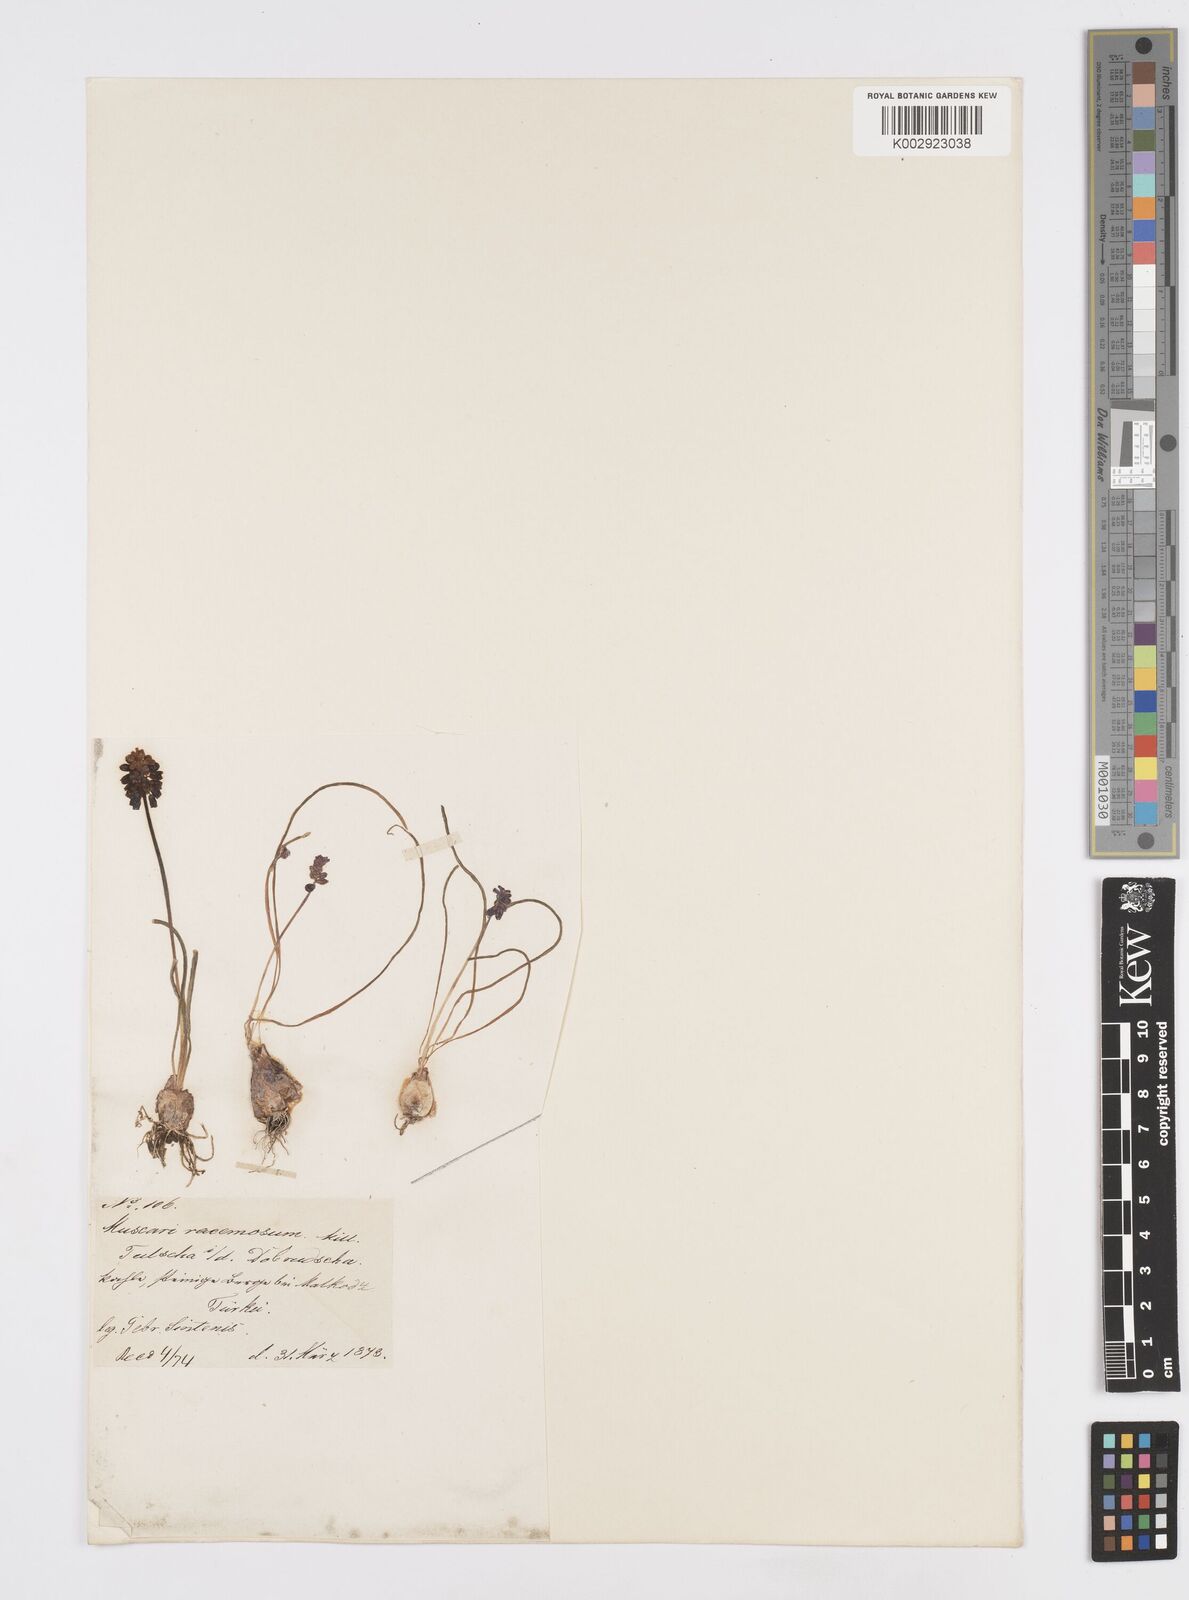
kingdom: Plantae
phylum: Tracheophyta
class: Liliopsida
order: Asparagales
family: Asparagaceae
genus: Muscarimia
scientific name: Muscarimia muscari
